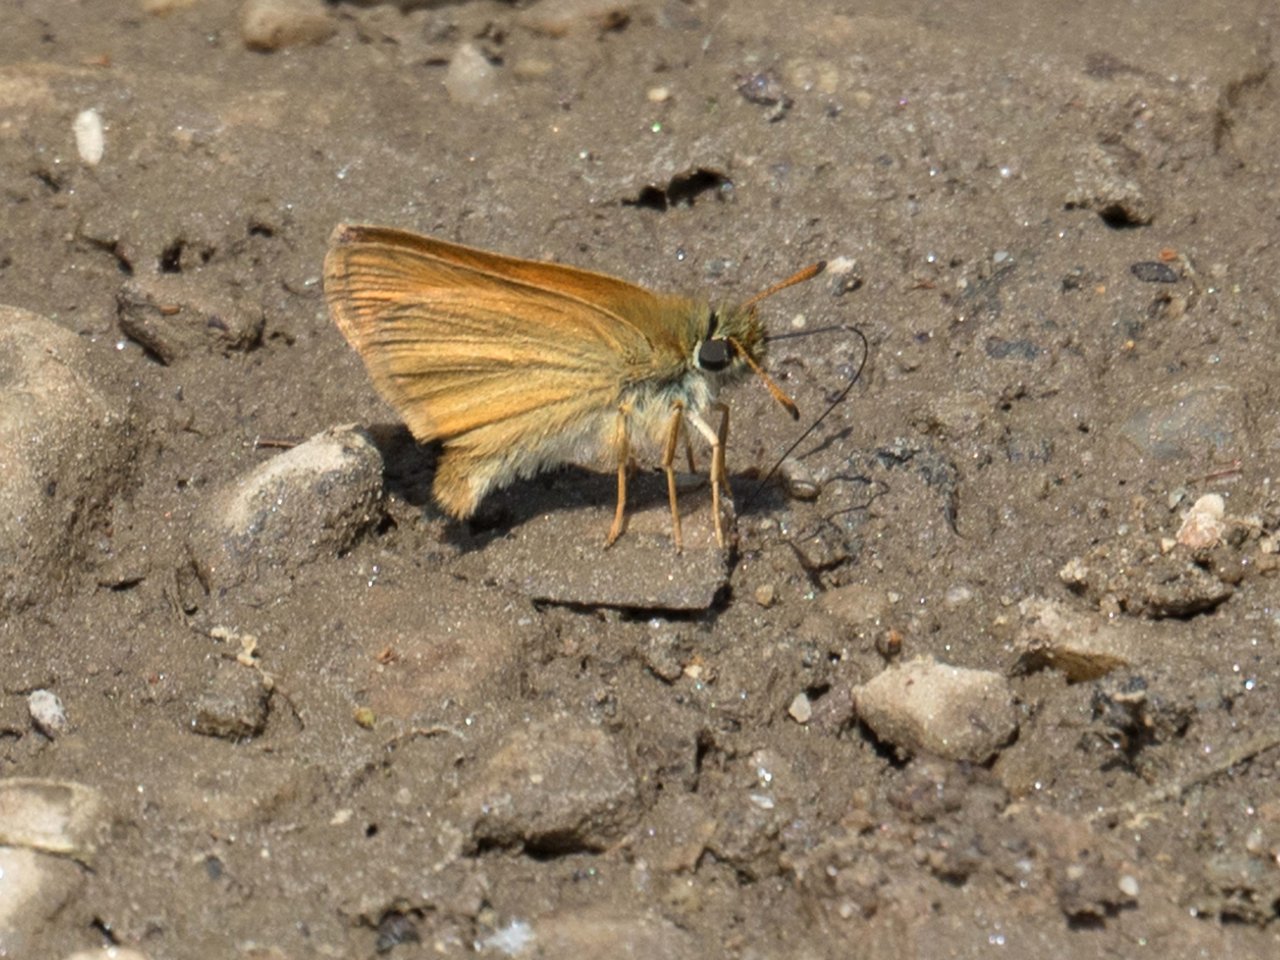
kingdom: Animalia
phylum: Arthropoda
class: Insecta
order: Lepidoptera
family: Hesperiidae
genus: Thymelicus
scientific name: Thymelicus lineola
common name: European Skipper
